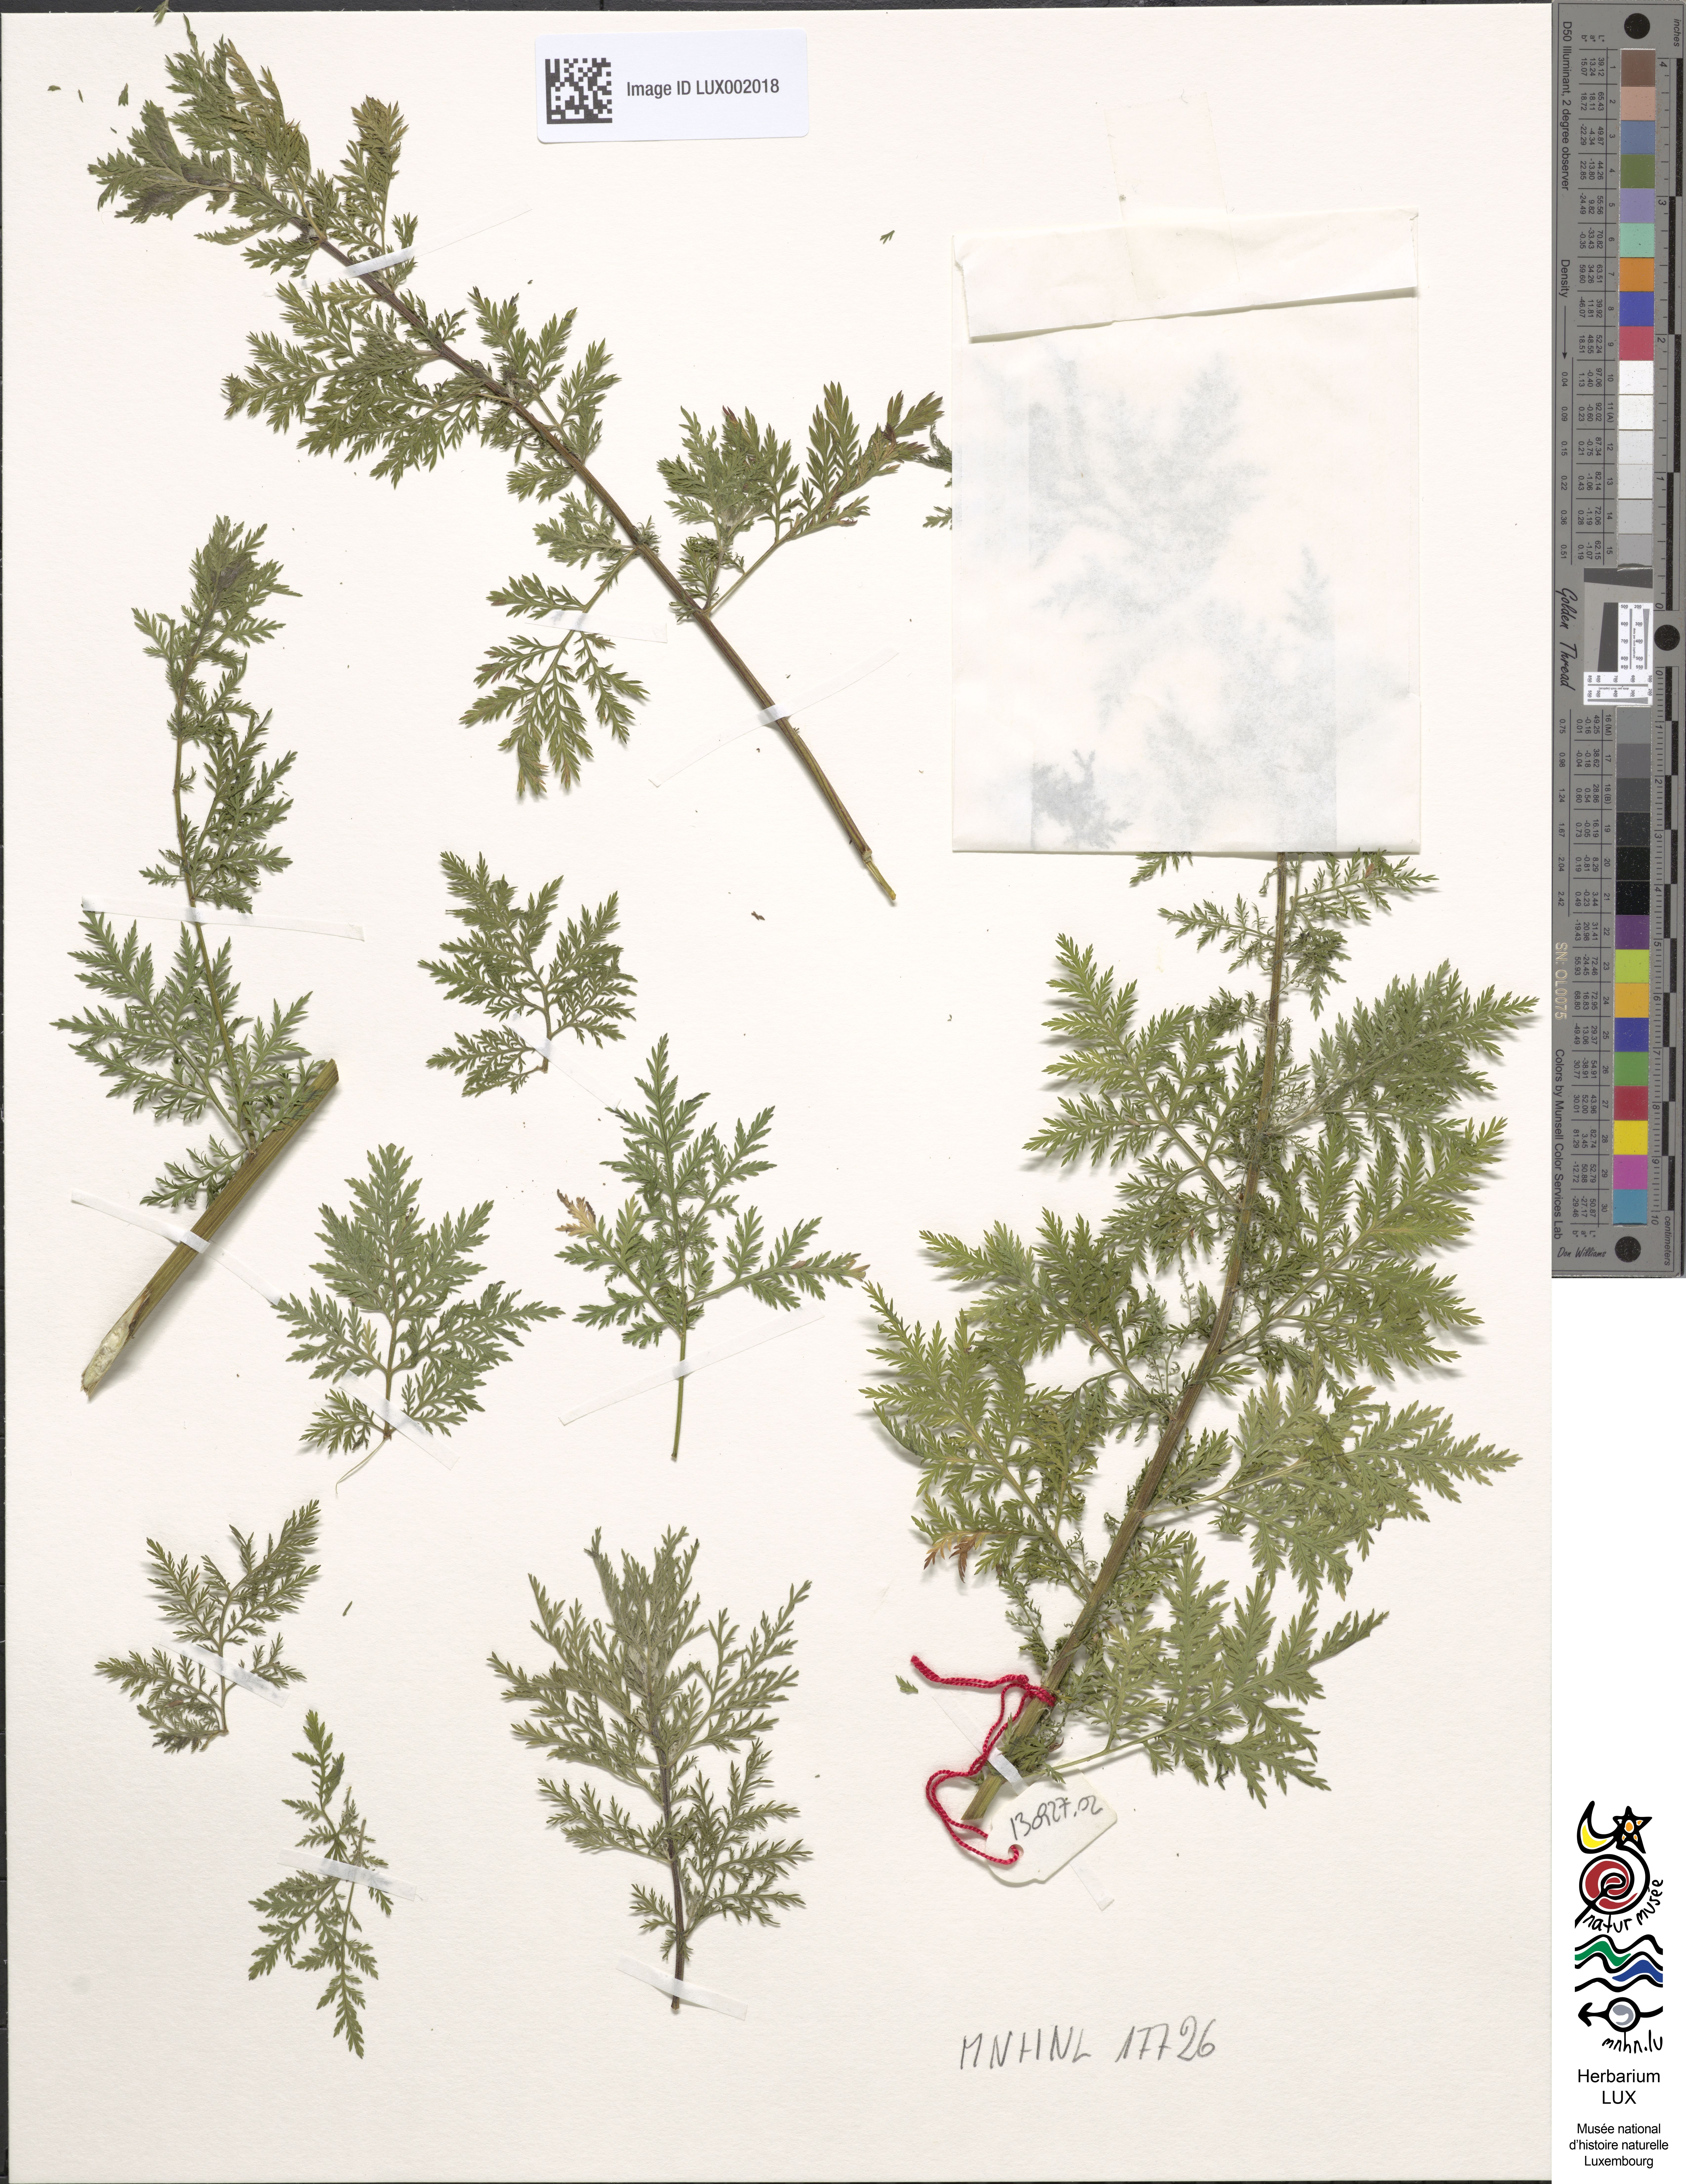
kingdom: Plantae
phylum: Tracheophyta
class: Magnoliopsida
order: Asterales
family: Asteraceae
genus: Artemisia
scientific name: Artemisia caruifolia
